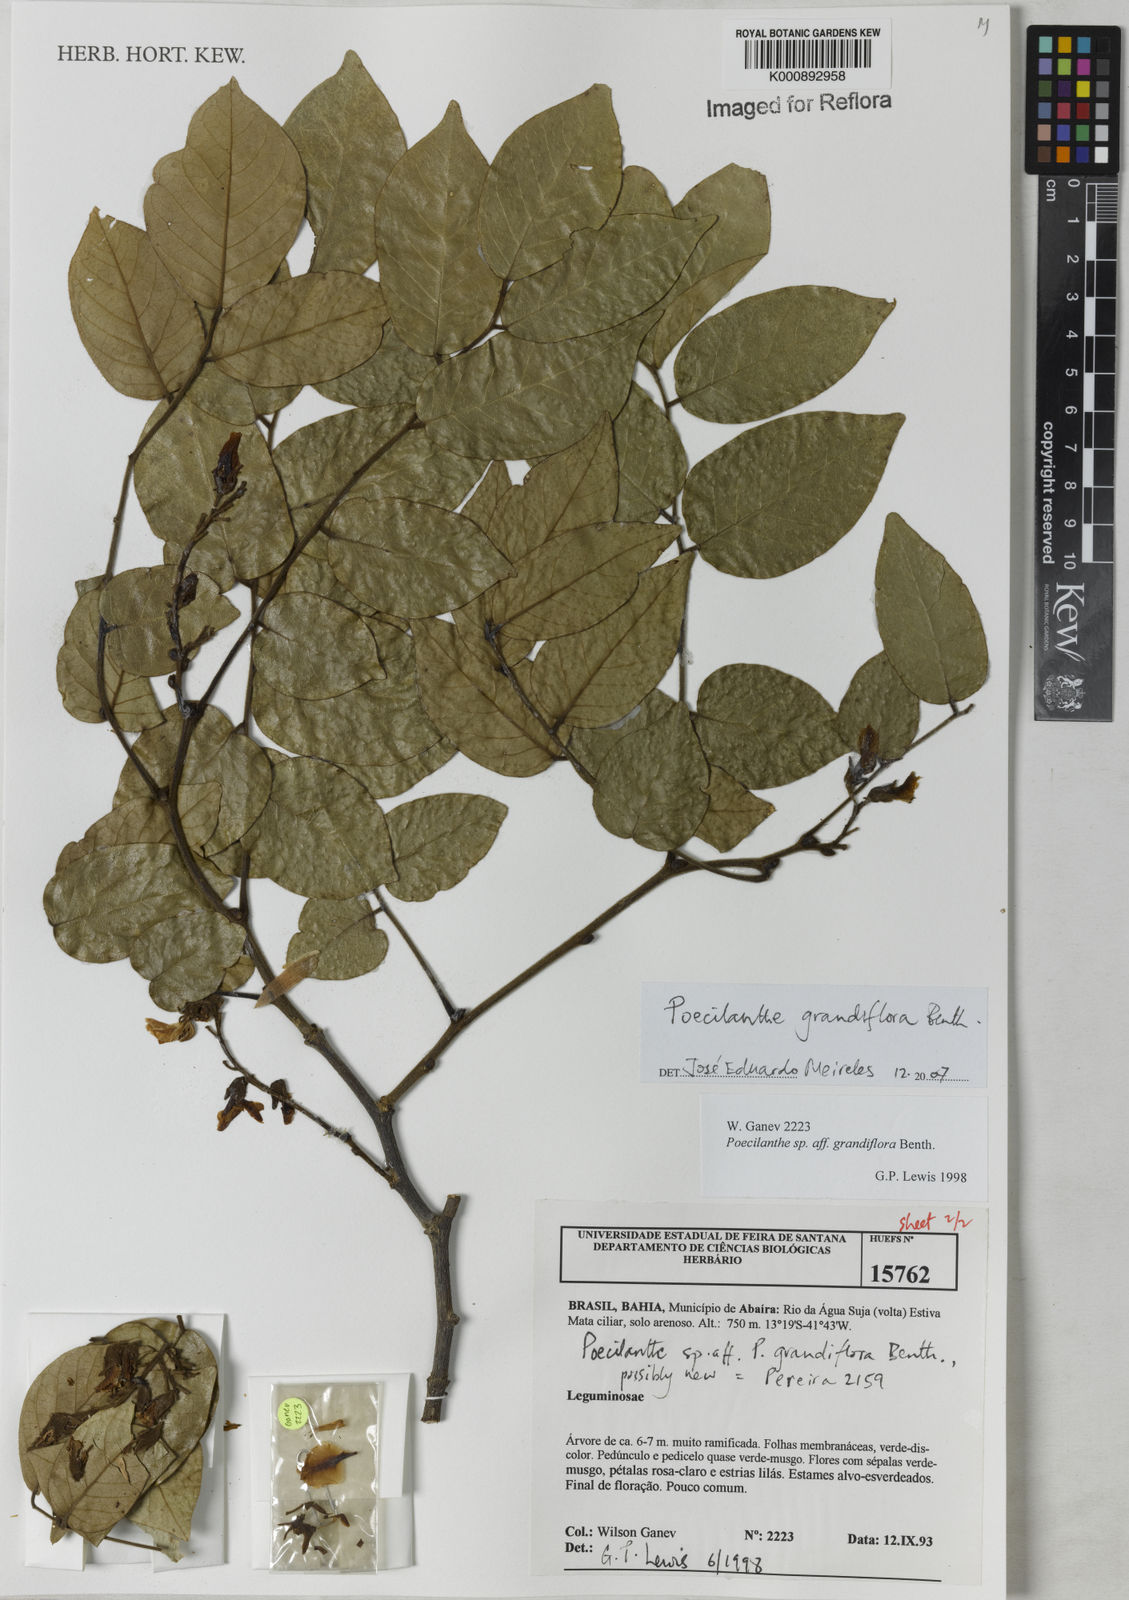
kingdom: Plantae
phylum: Tracheophyta
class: Magnoliopsida
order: Fabales
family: Fabaceae
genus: Poecilanthe
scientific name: Poecilanthe grandiflora
